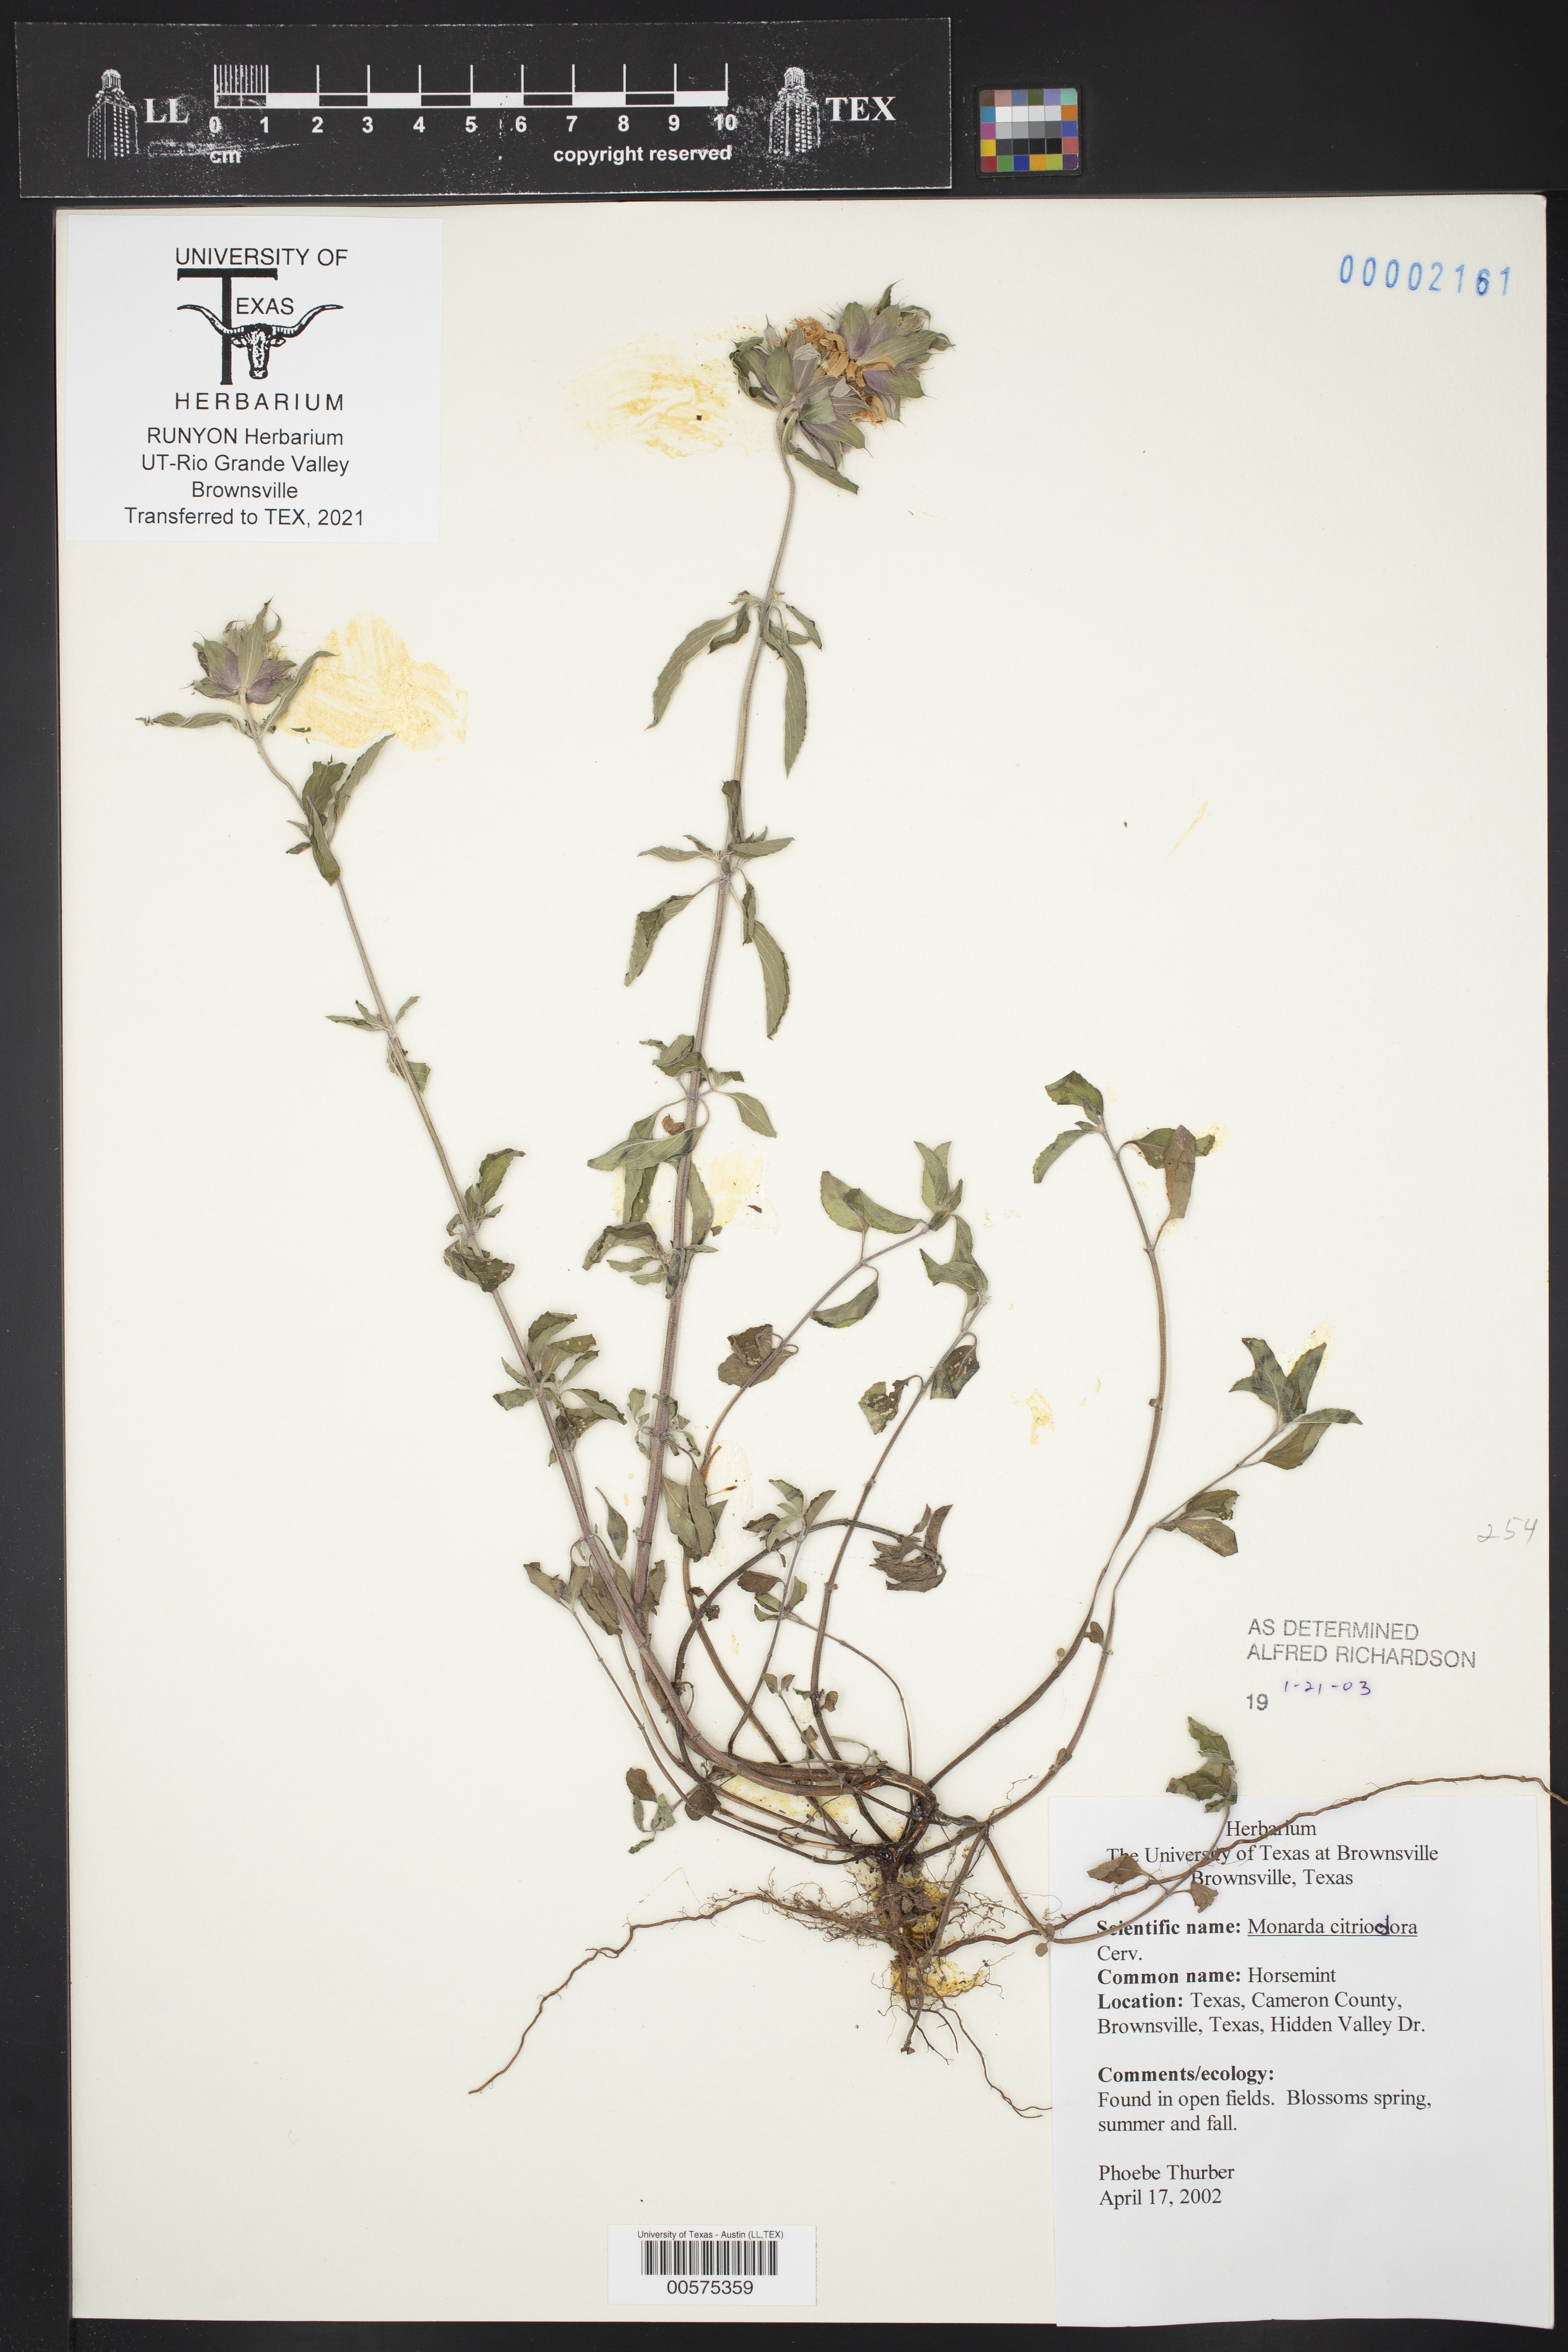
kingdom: Plantae
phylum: Tracheophyta
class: Magnoliopsida
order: Lamiales
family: Lamiaceae
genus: Monarda
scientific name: Monarda citriodora
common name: Lemon beebalm
